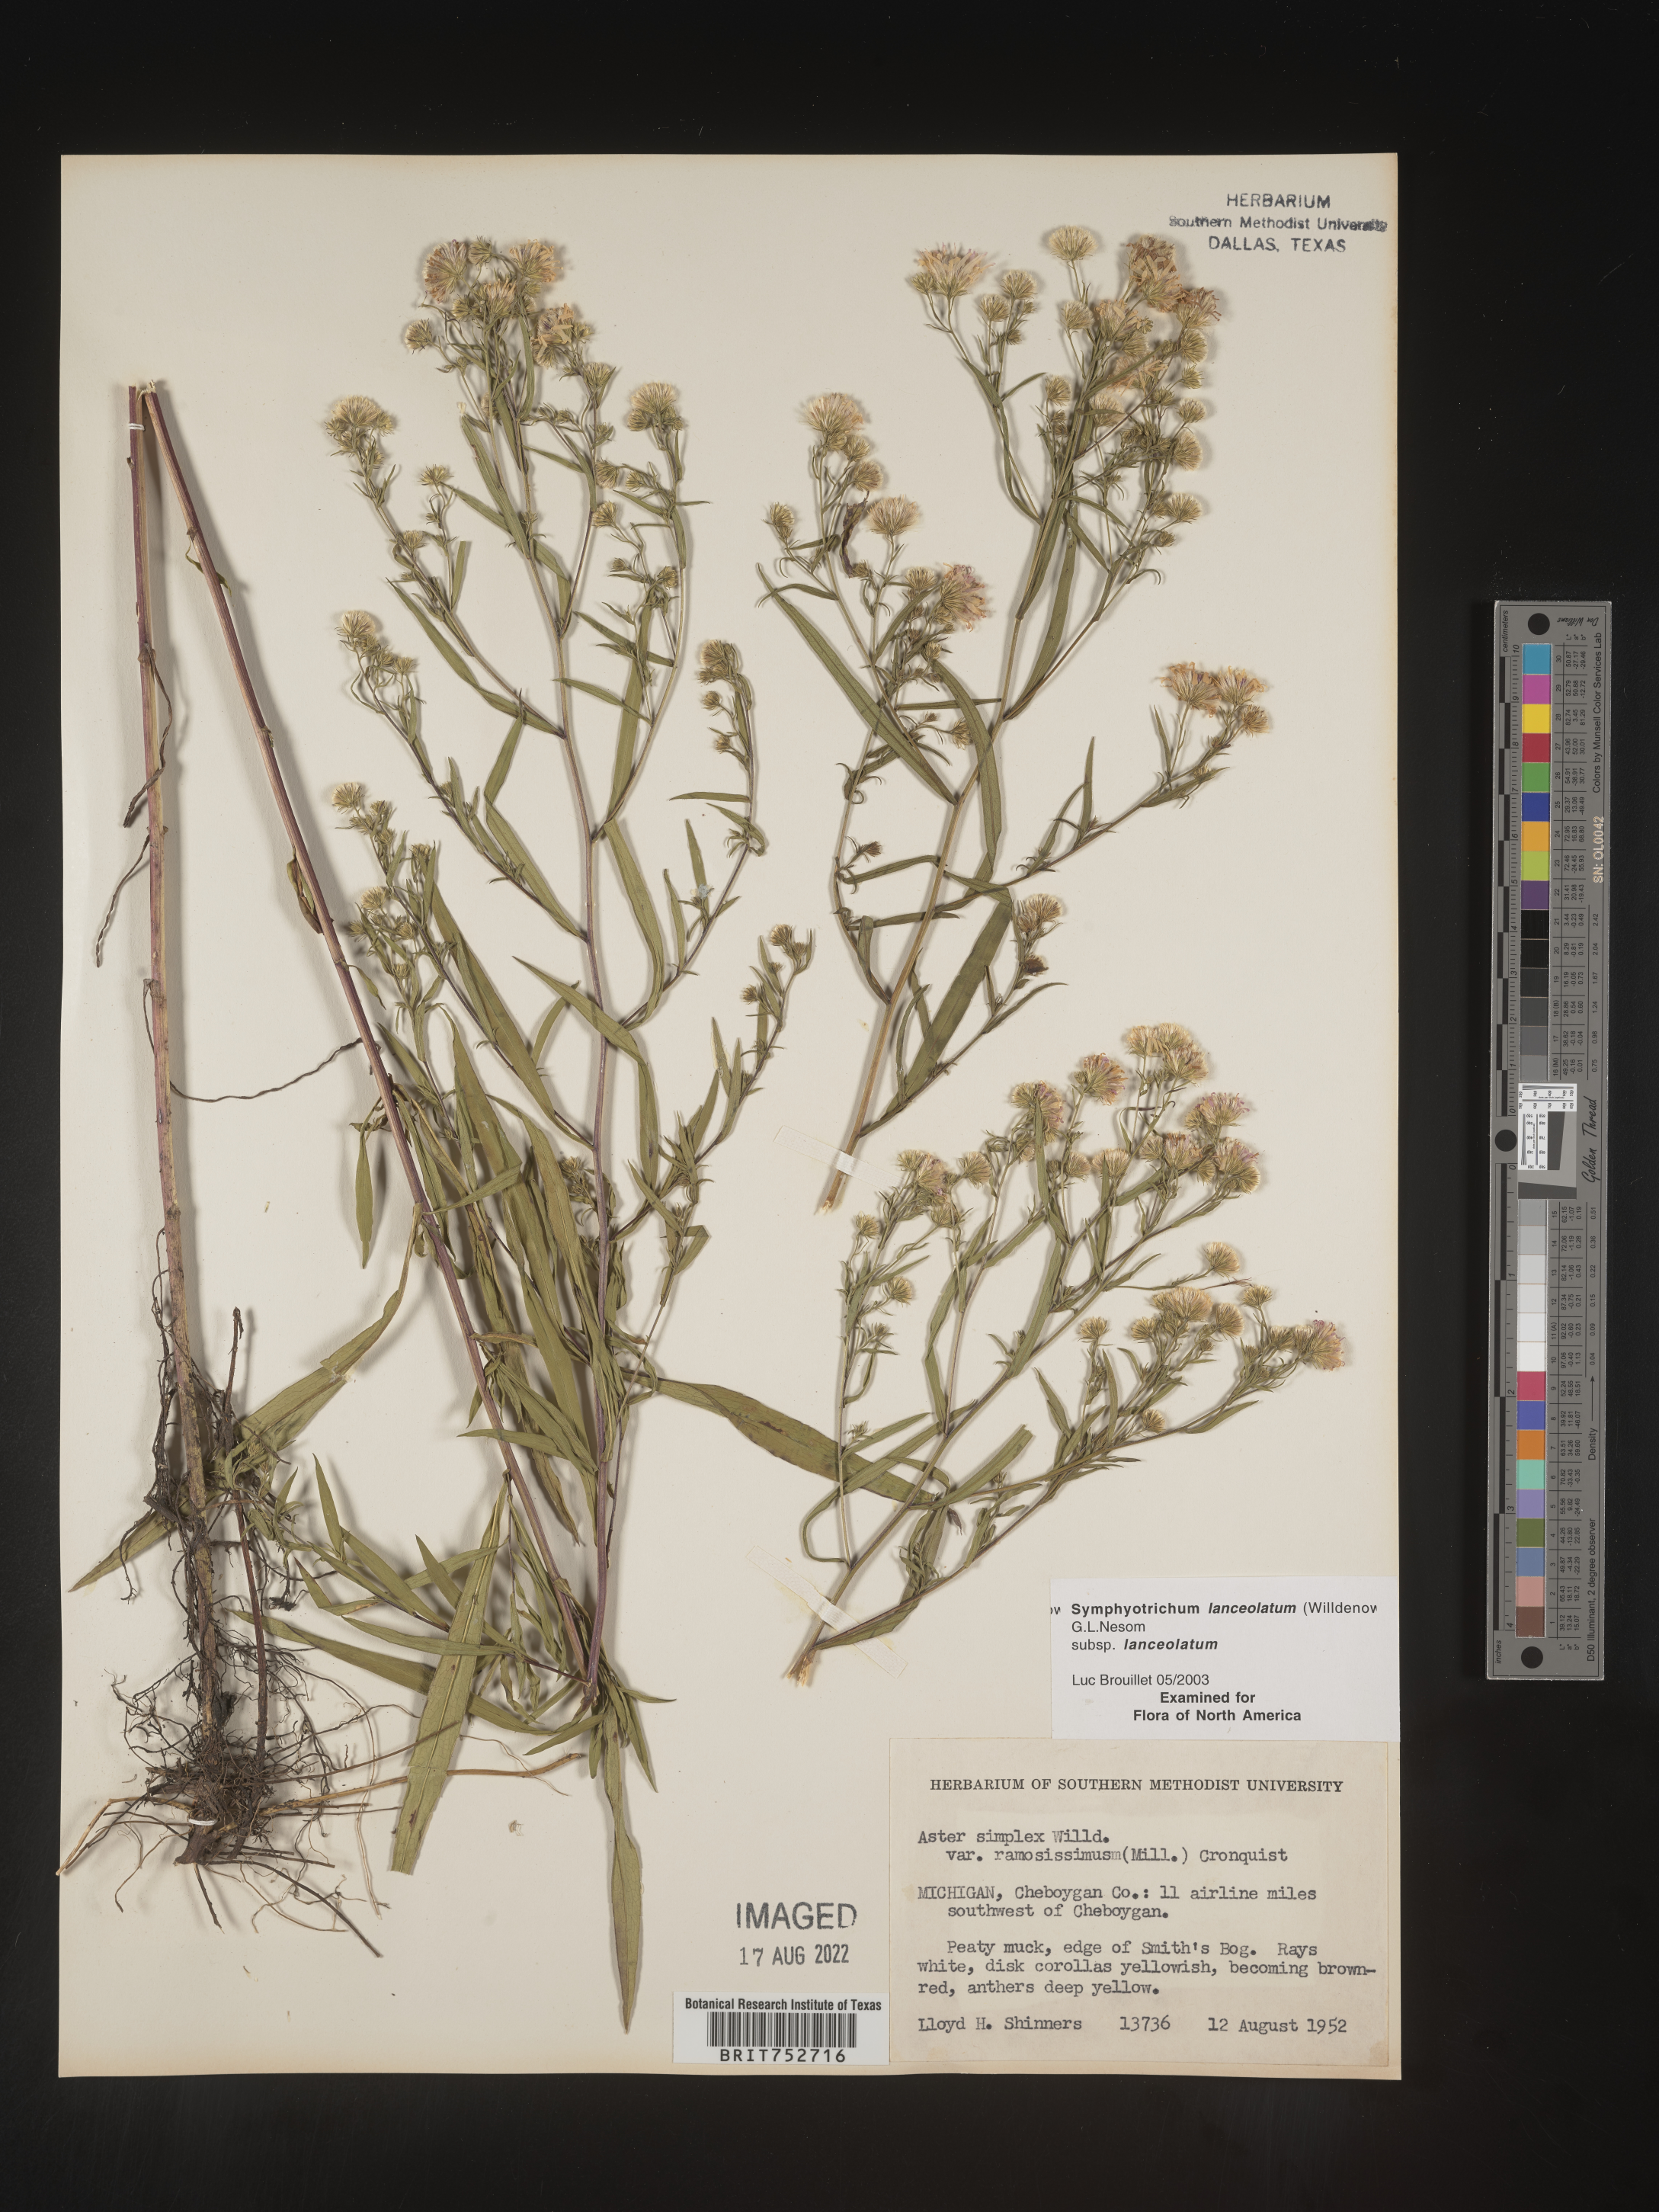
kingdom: Plantae
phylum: Tracheophyta
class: Magnoliopsida
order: Asterales
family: Asteraceae
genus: Symphyotrichum
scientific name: Symphyotrichum lanceolatum
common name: Panicled aster
